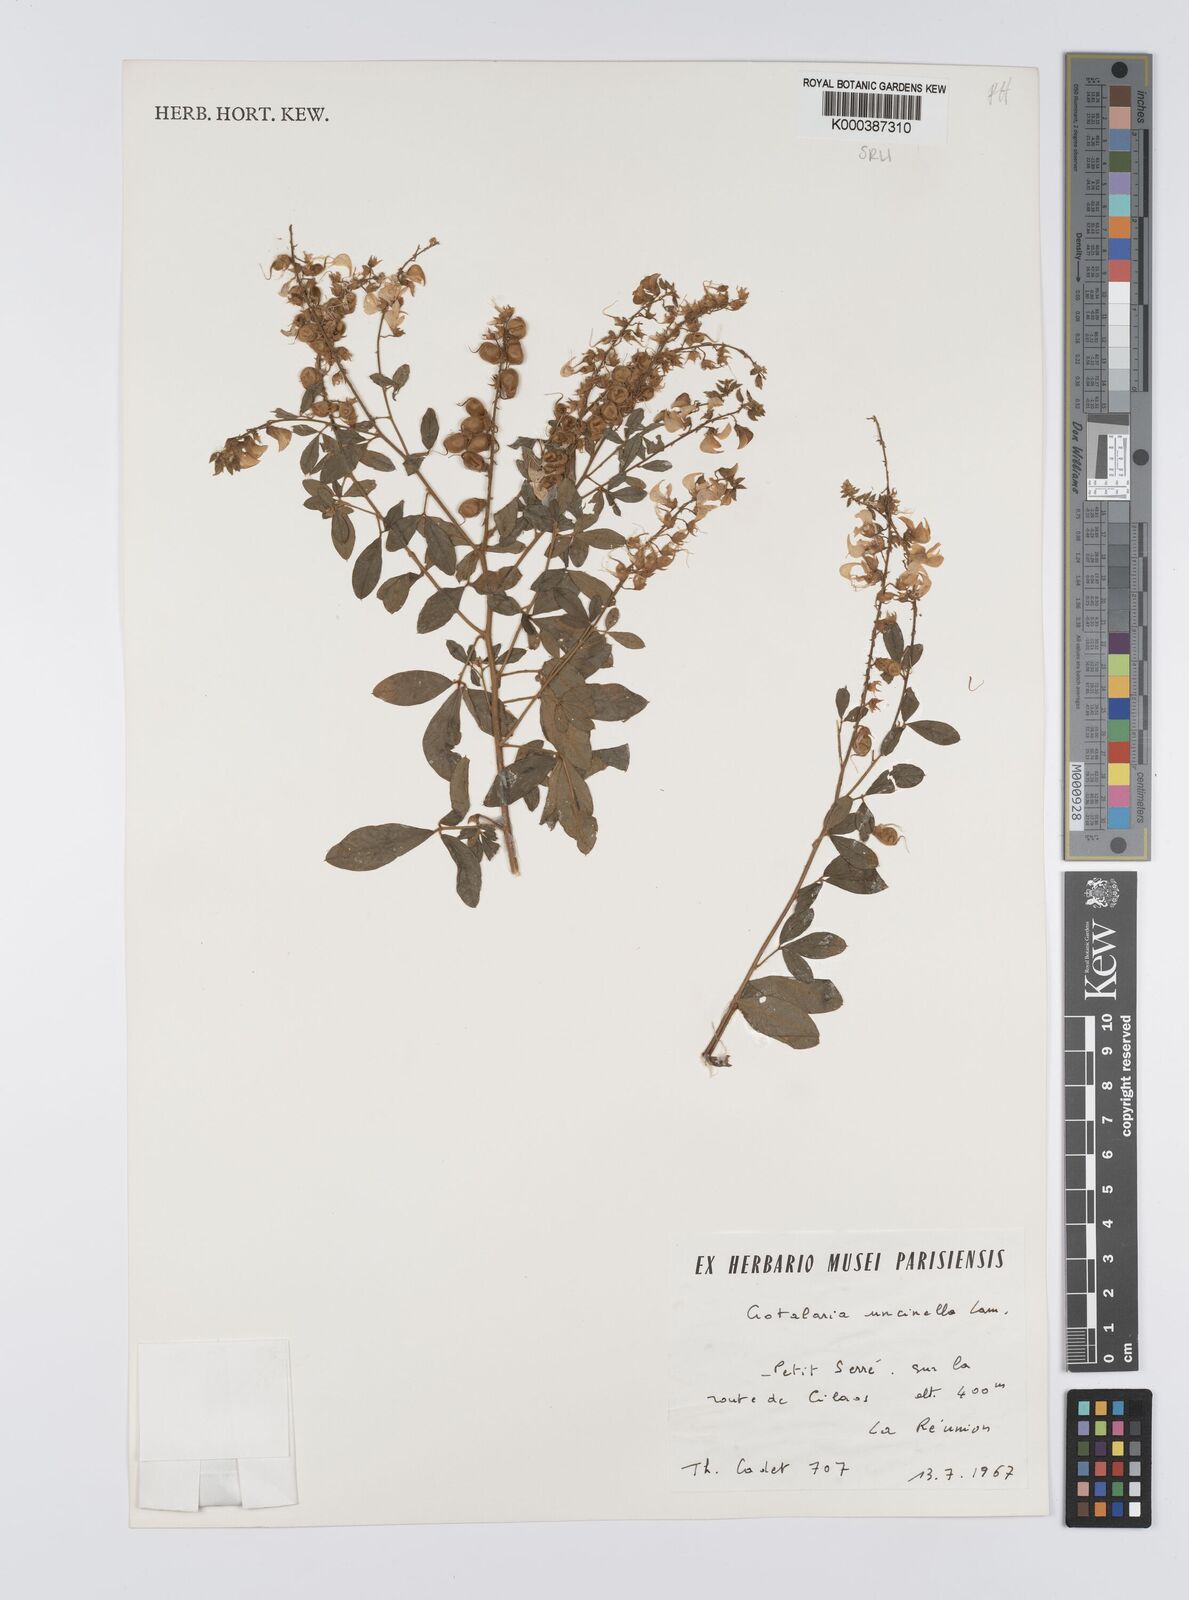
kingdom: Plantae
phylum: Tracheophyta
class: Magnoliopsida
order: Fabales
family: Fabaceae
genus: Crotalaria
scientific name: Crotalaria uncinella
